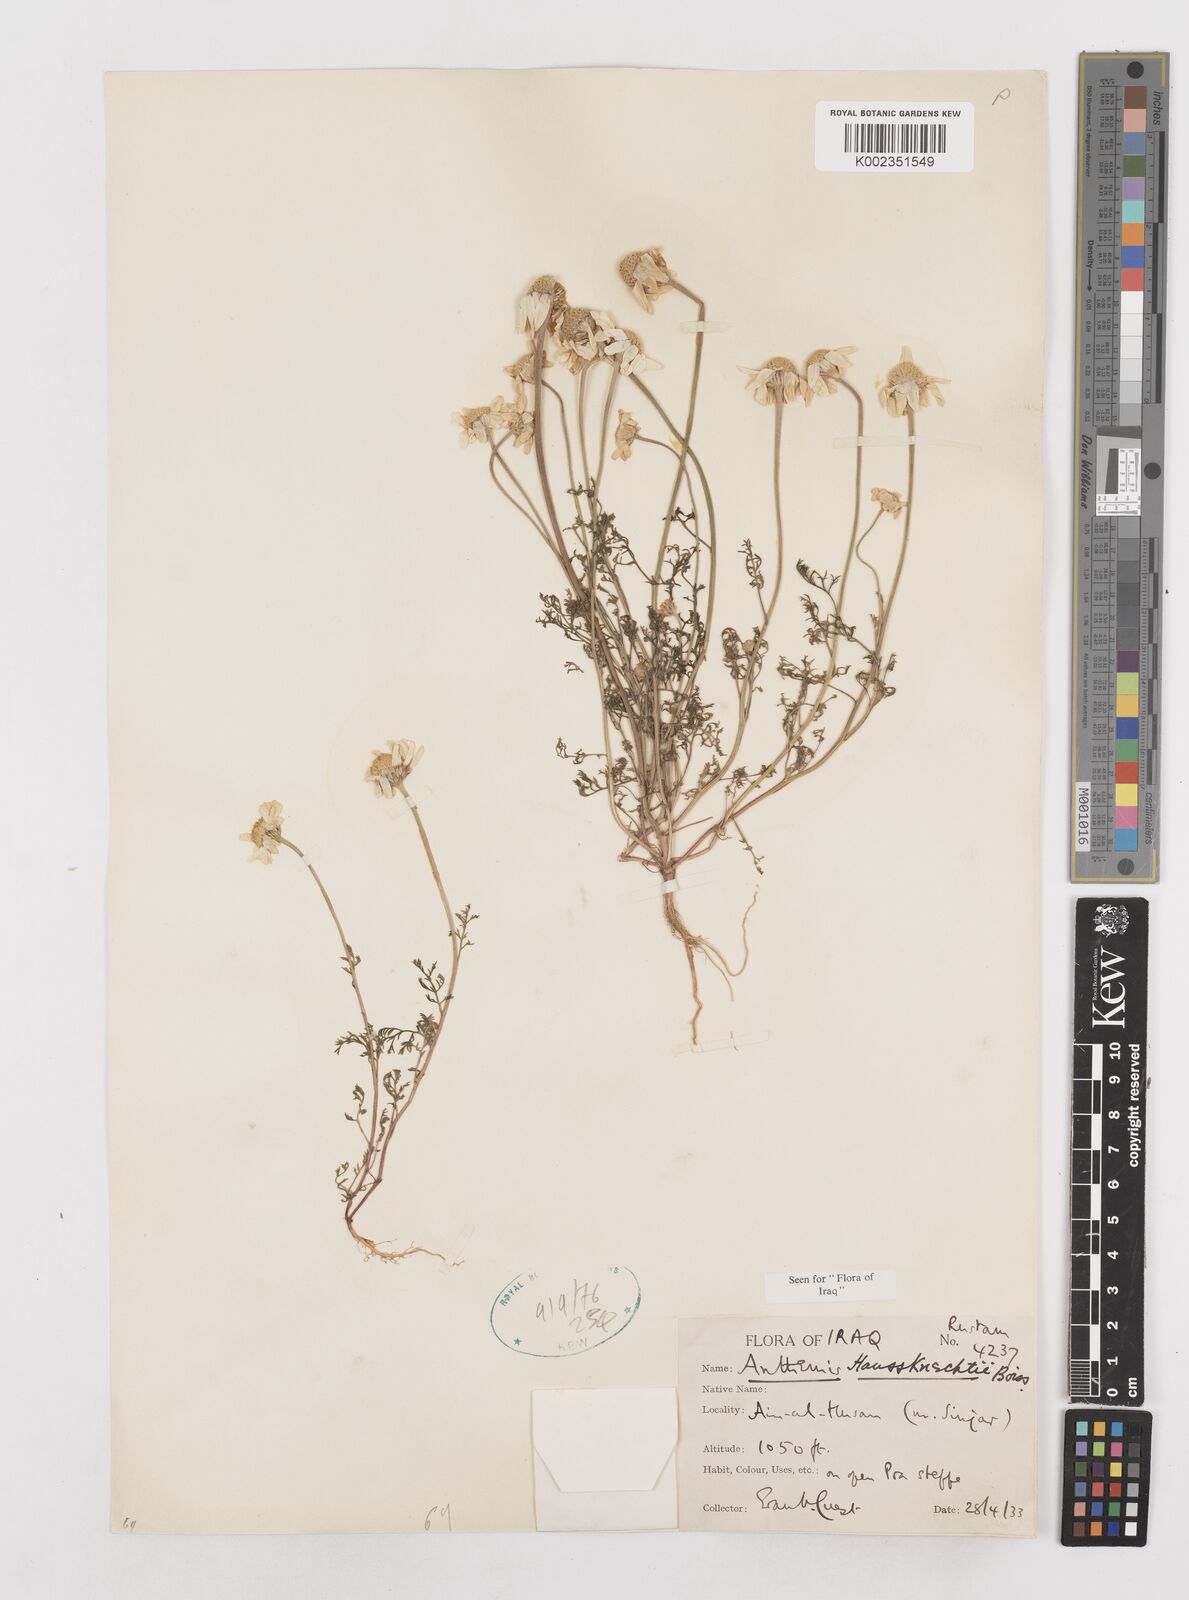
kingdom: Plantae
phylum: Tracheophyta
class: Magnoliopsida
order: Asterales
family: Asteraceae
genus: Anthemis
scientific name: Anthemis haussknechtii
